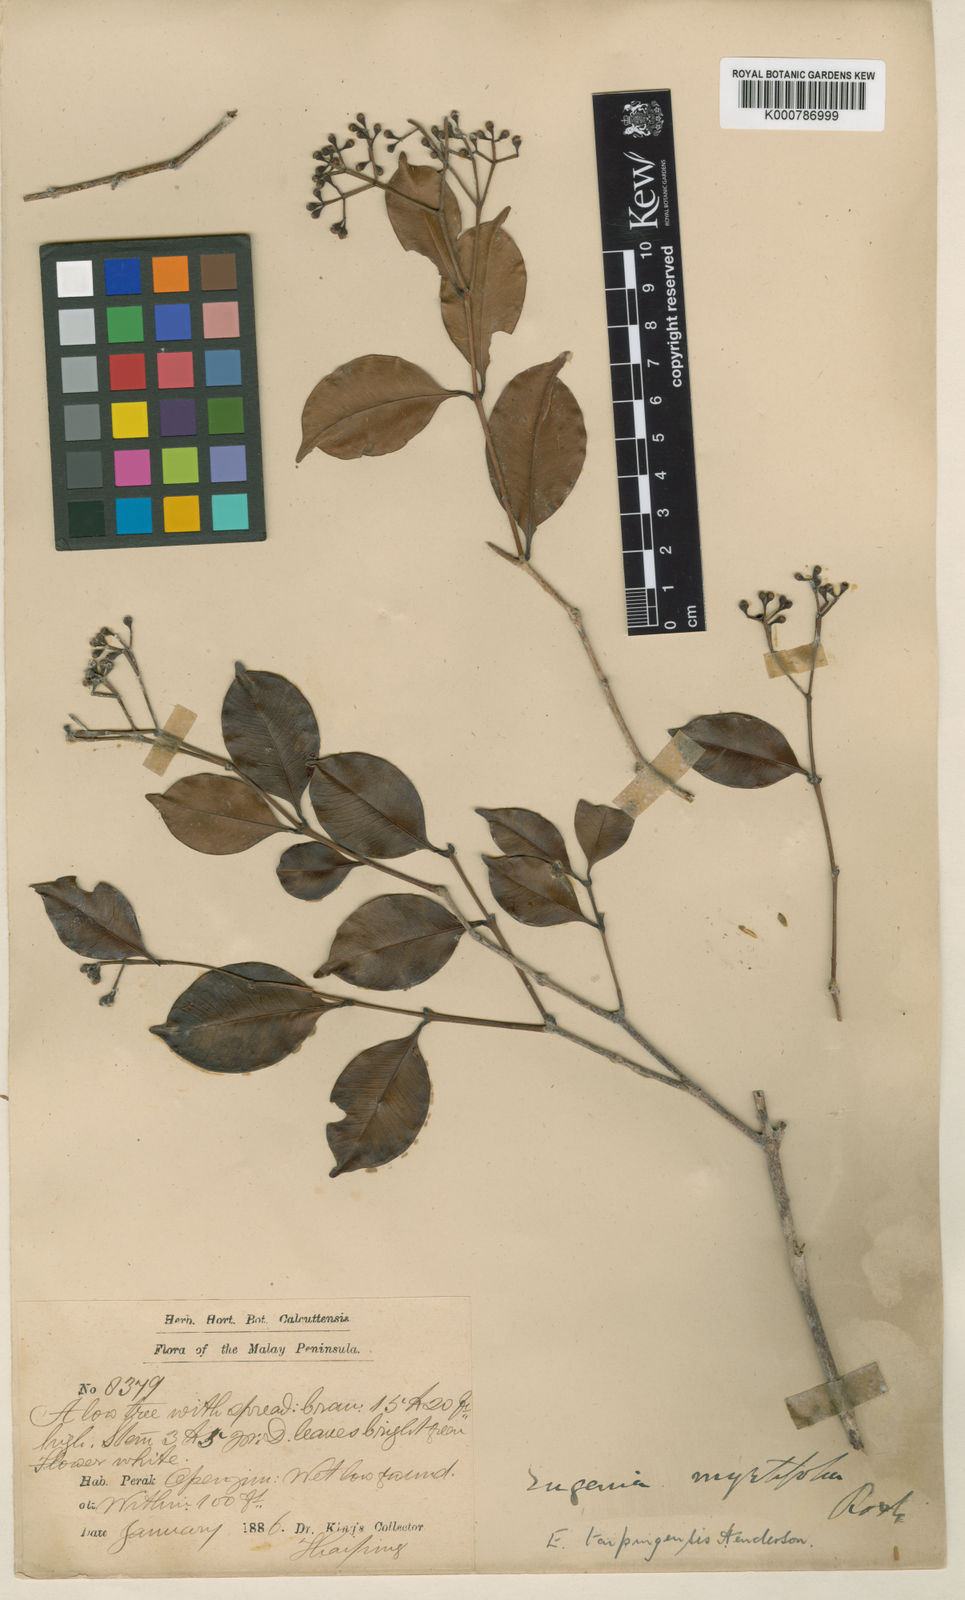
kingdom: Plantae
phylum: Tracheophyta
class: Magnoliopsida
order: Myrtales
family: Myrtaceae
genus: Syzygium
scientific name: Syzygium taipingense
